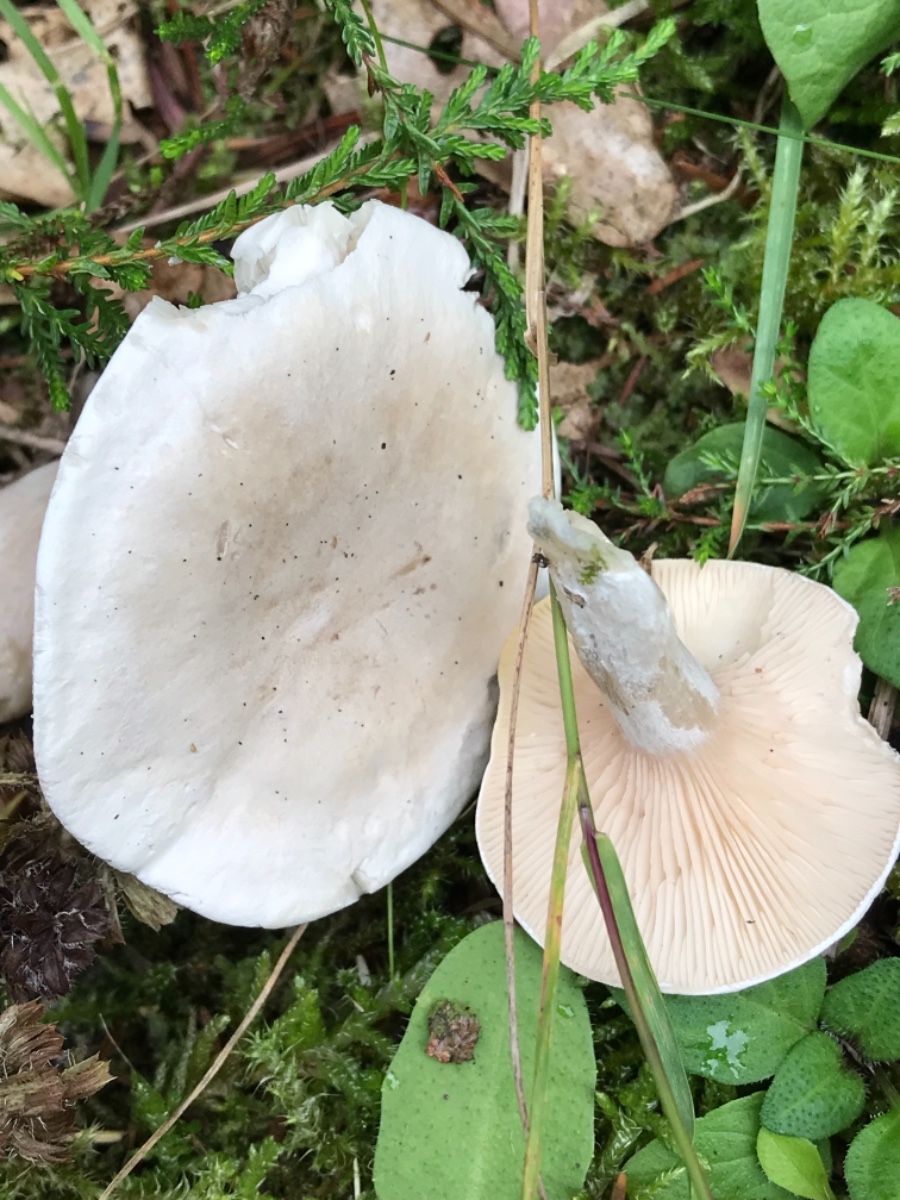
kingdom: Fungi
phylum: Basidiomycota
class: Agaricomycetes
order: Agaricales
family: Entolomataceae
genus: Clitopilus
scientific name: Clitopilus prunulus
